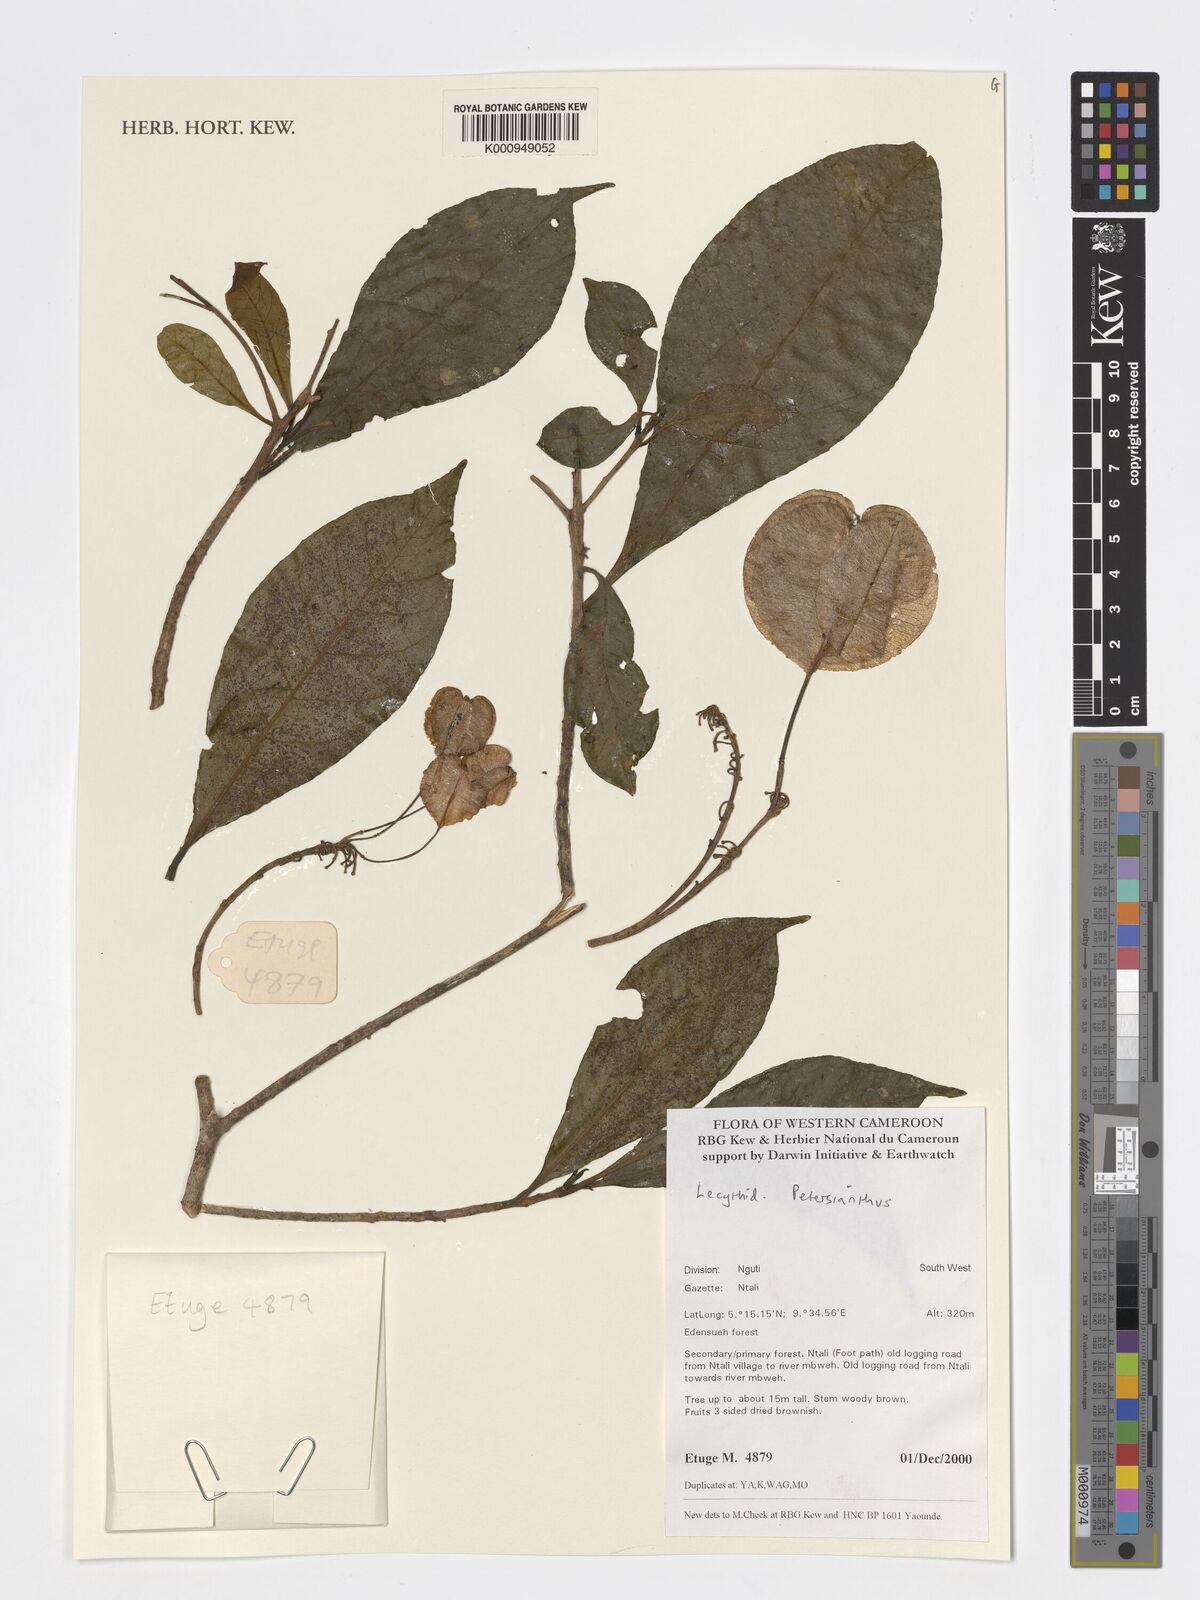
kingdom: Plantae
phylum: Tracheophyta
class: Magnoliopsida
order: Ericales
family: Lecythidaceae
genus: Petersianthus
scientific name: Petersianthus
